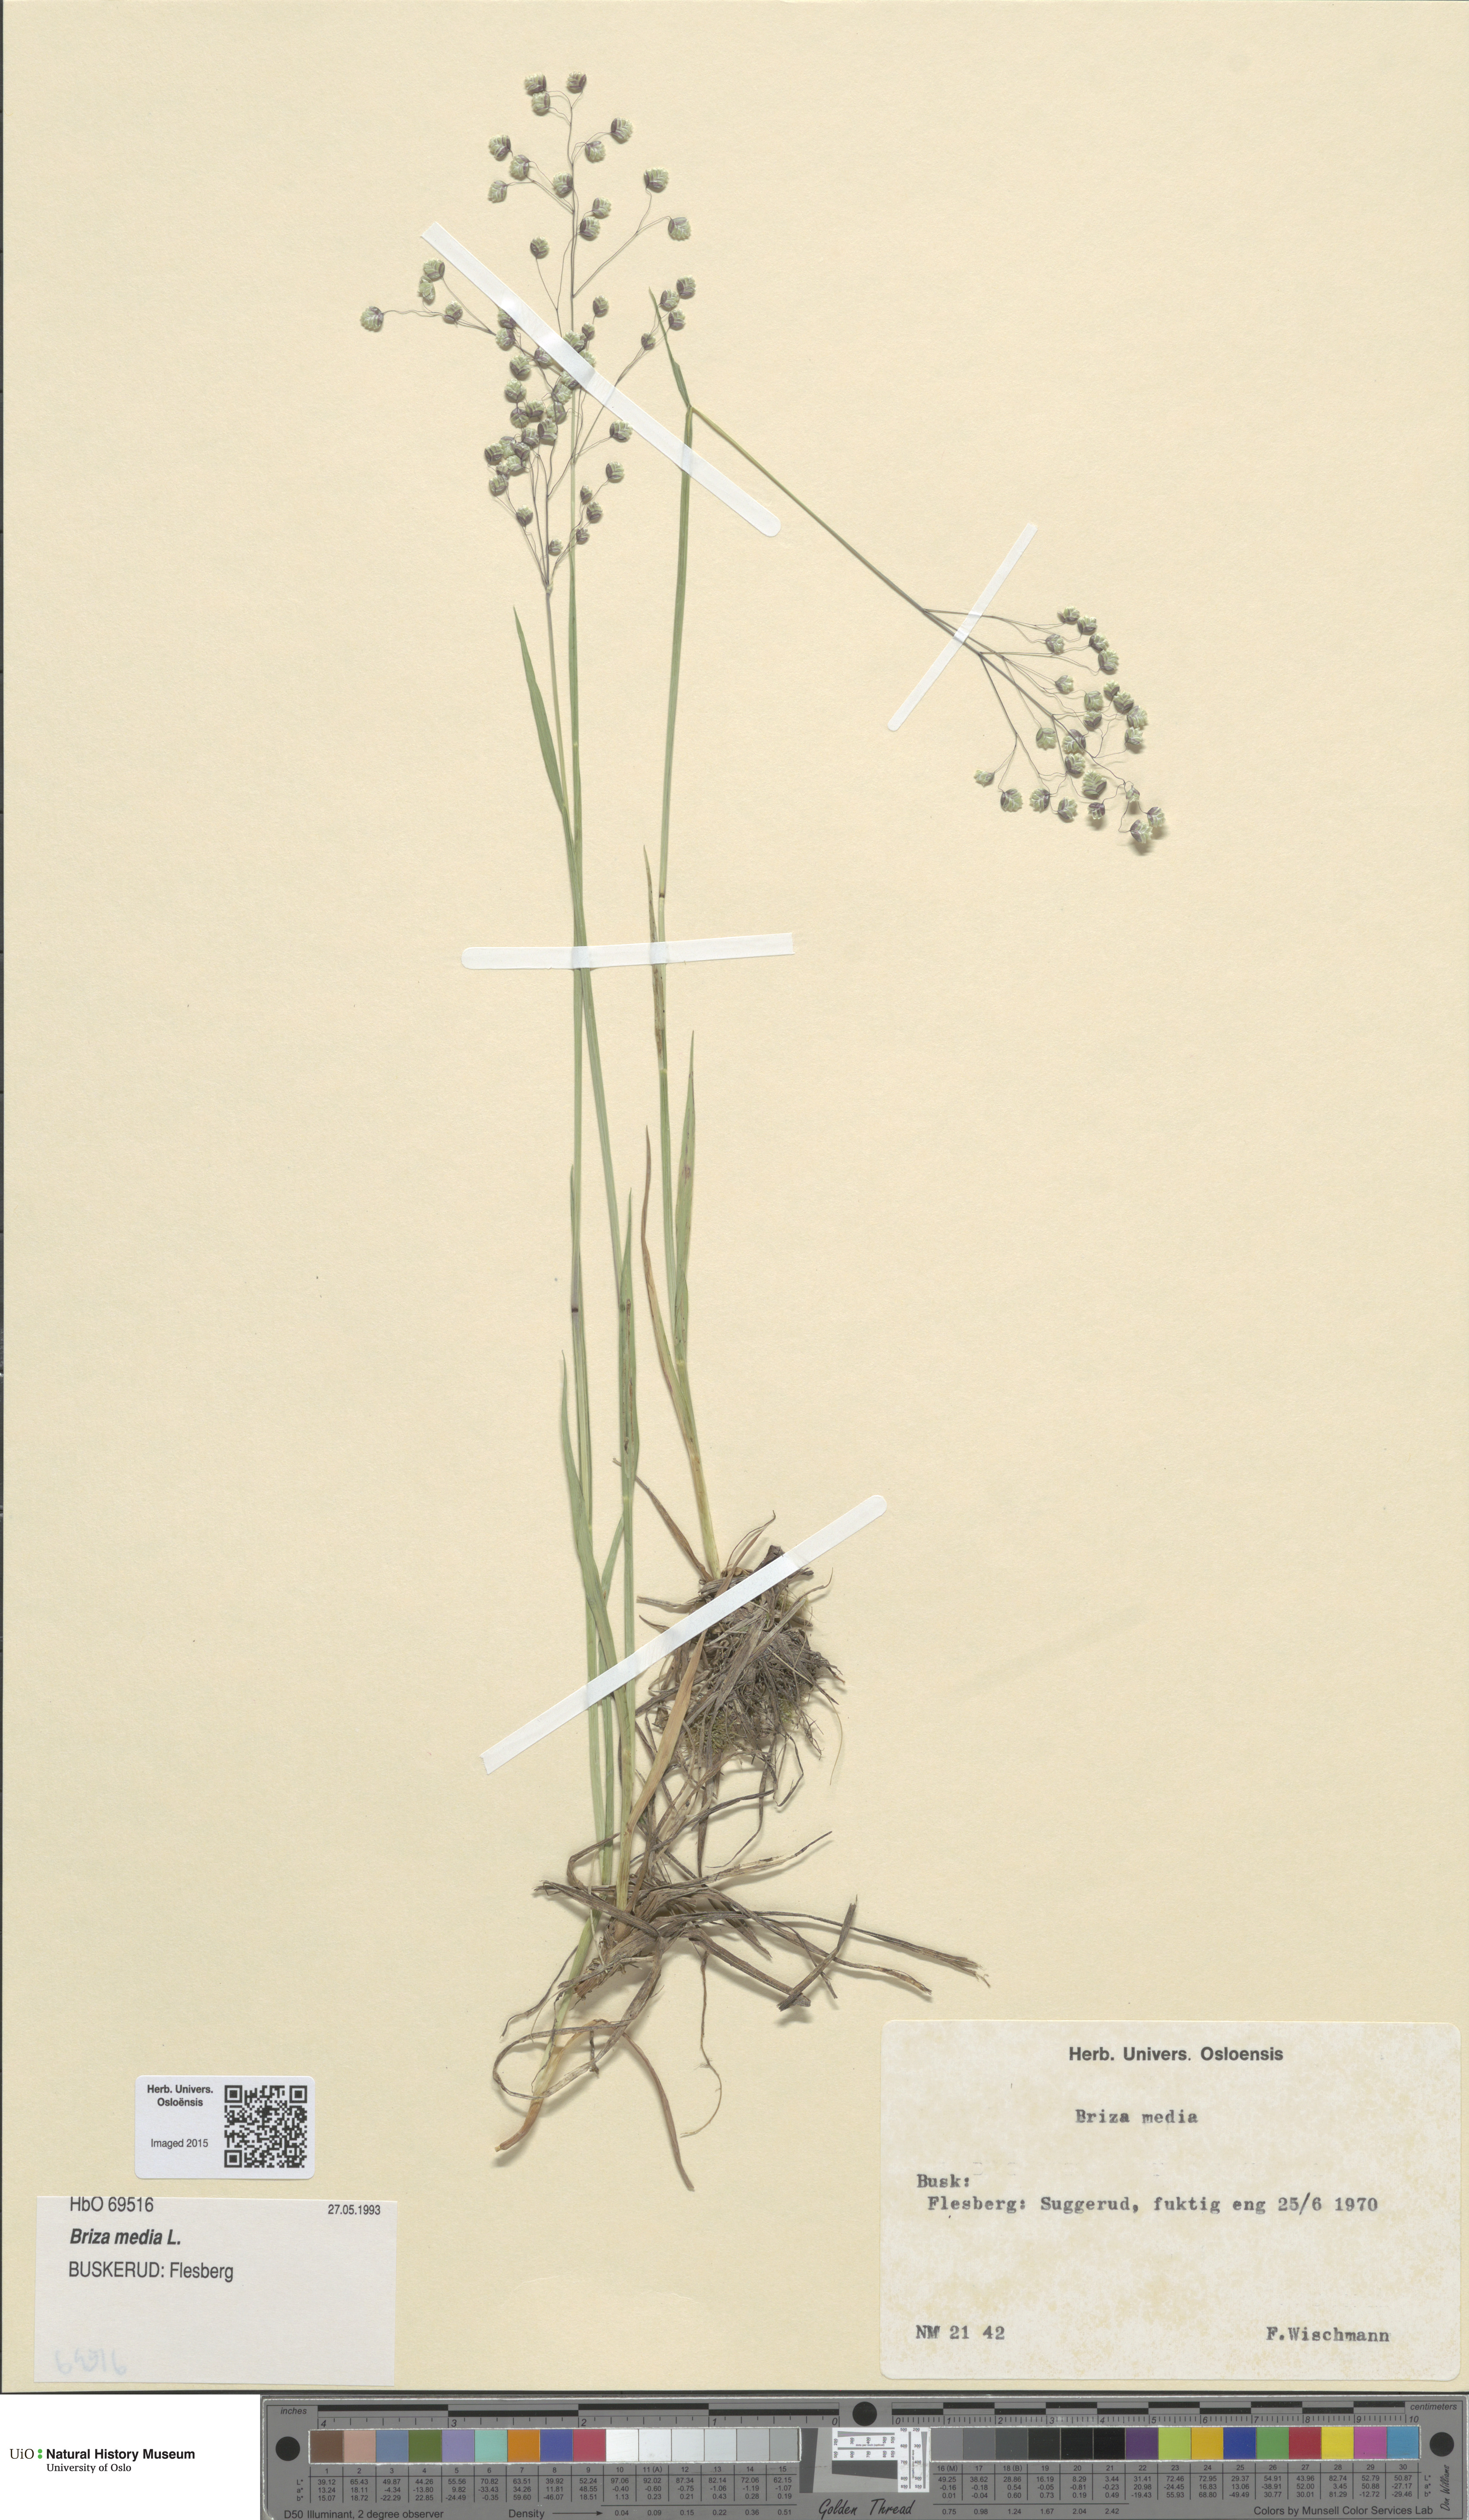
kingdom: Plantae
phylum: Tracheophyta
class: Liliopsida
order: Poales
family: Poaceae
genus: Briza
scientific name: Briza media
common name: Quaking grass
